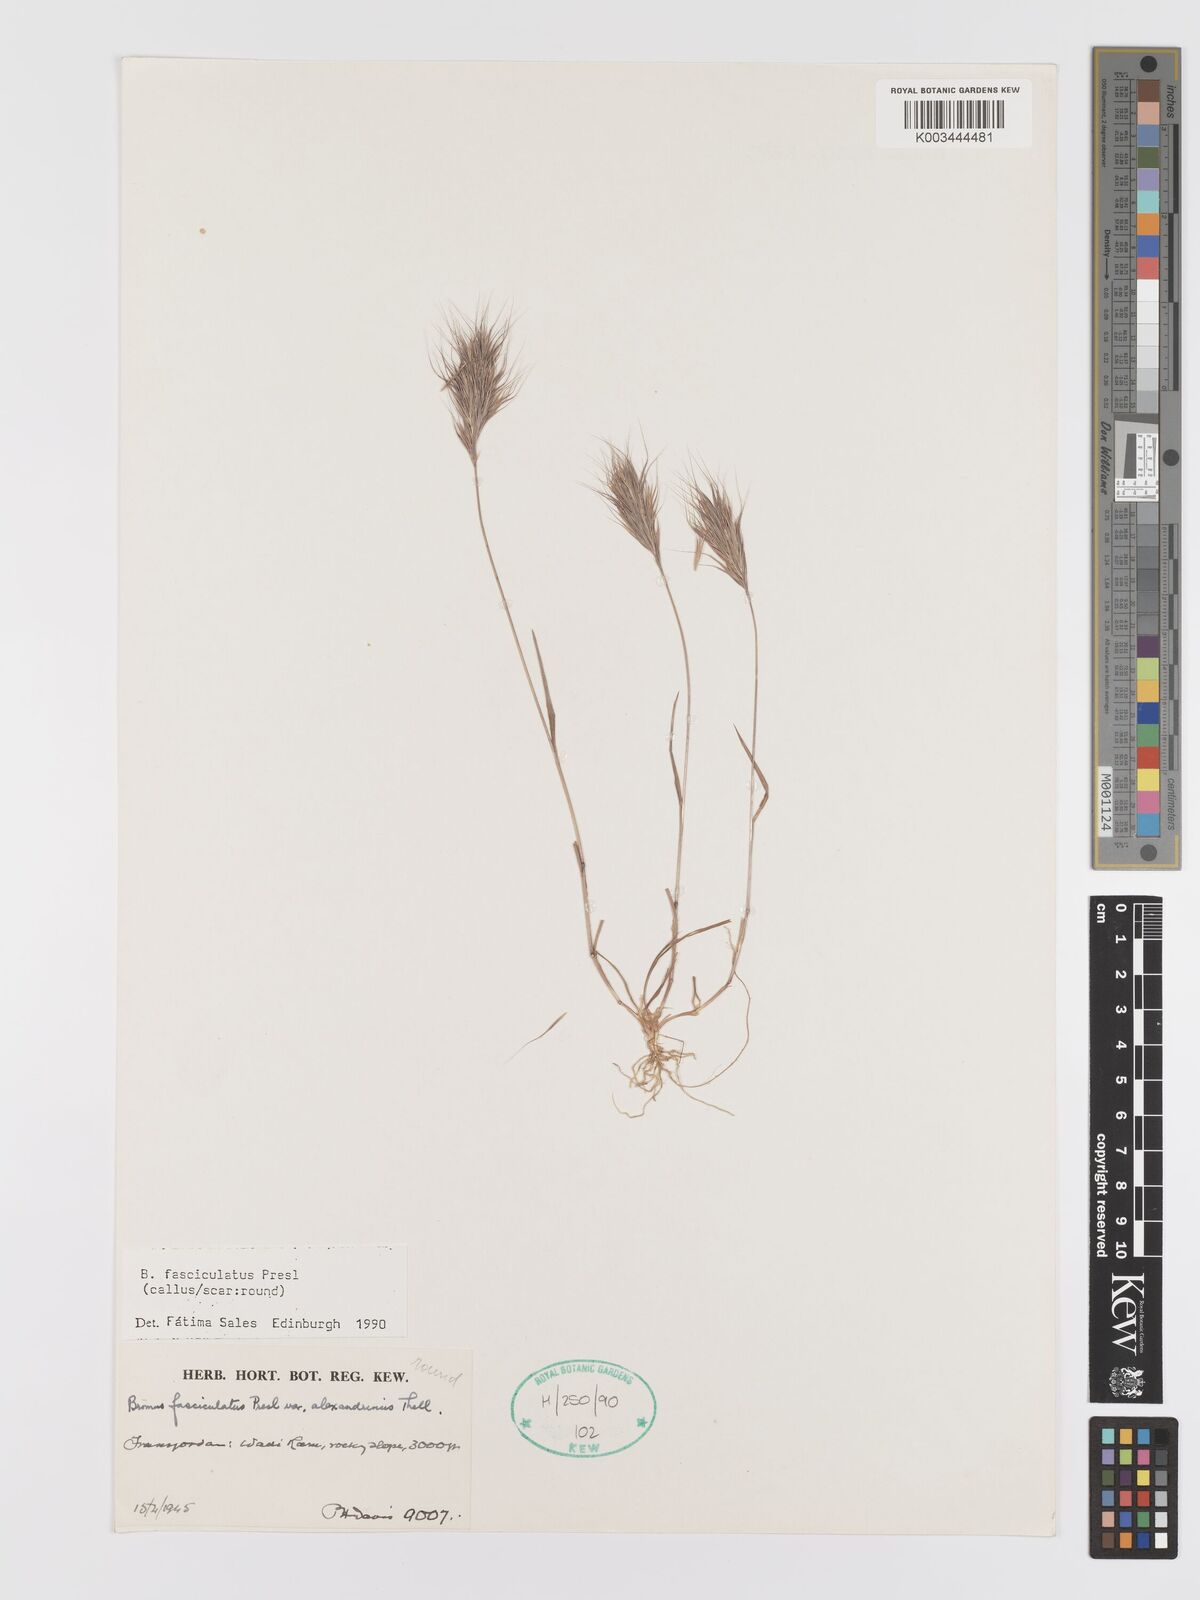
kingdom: Plantae
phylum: Tracheophyta
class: Liliopsida
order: Poales
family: Poaceae
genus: Bromus
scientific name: Bromus fasciculatus
